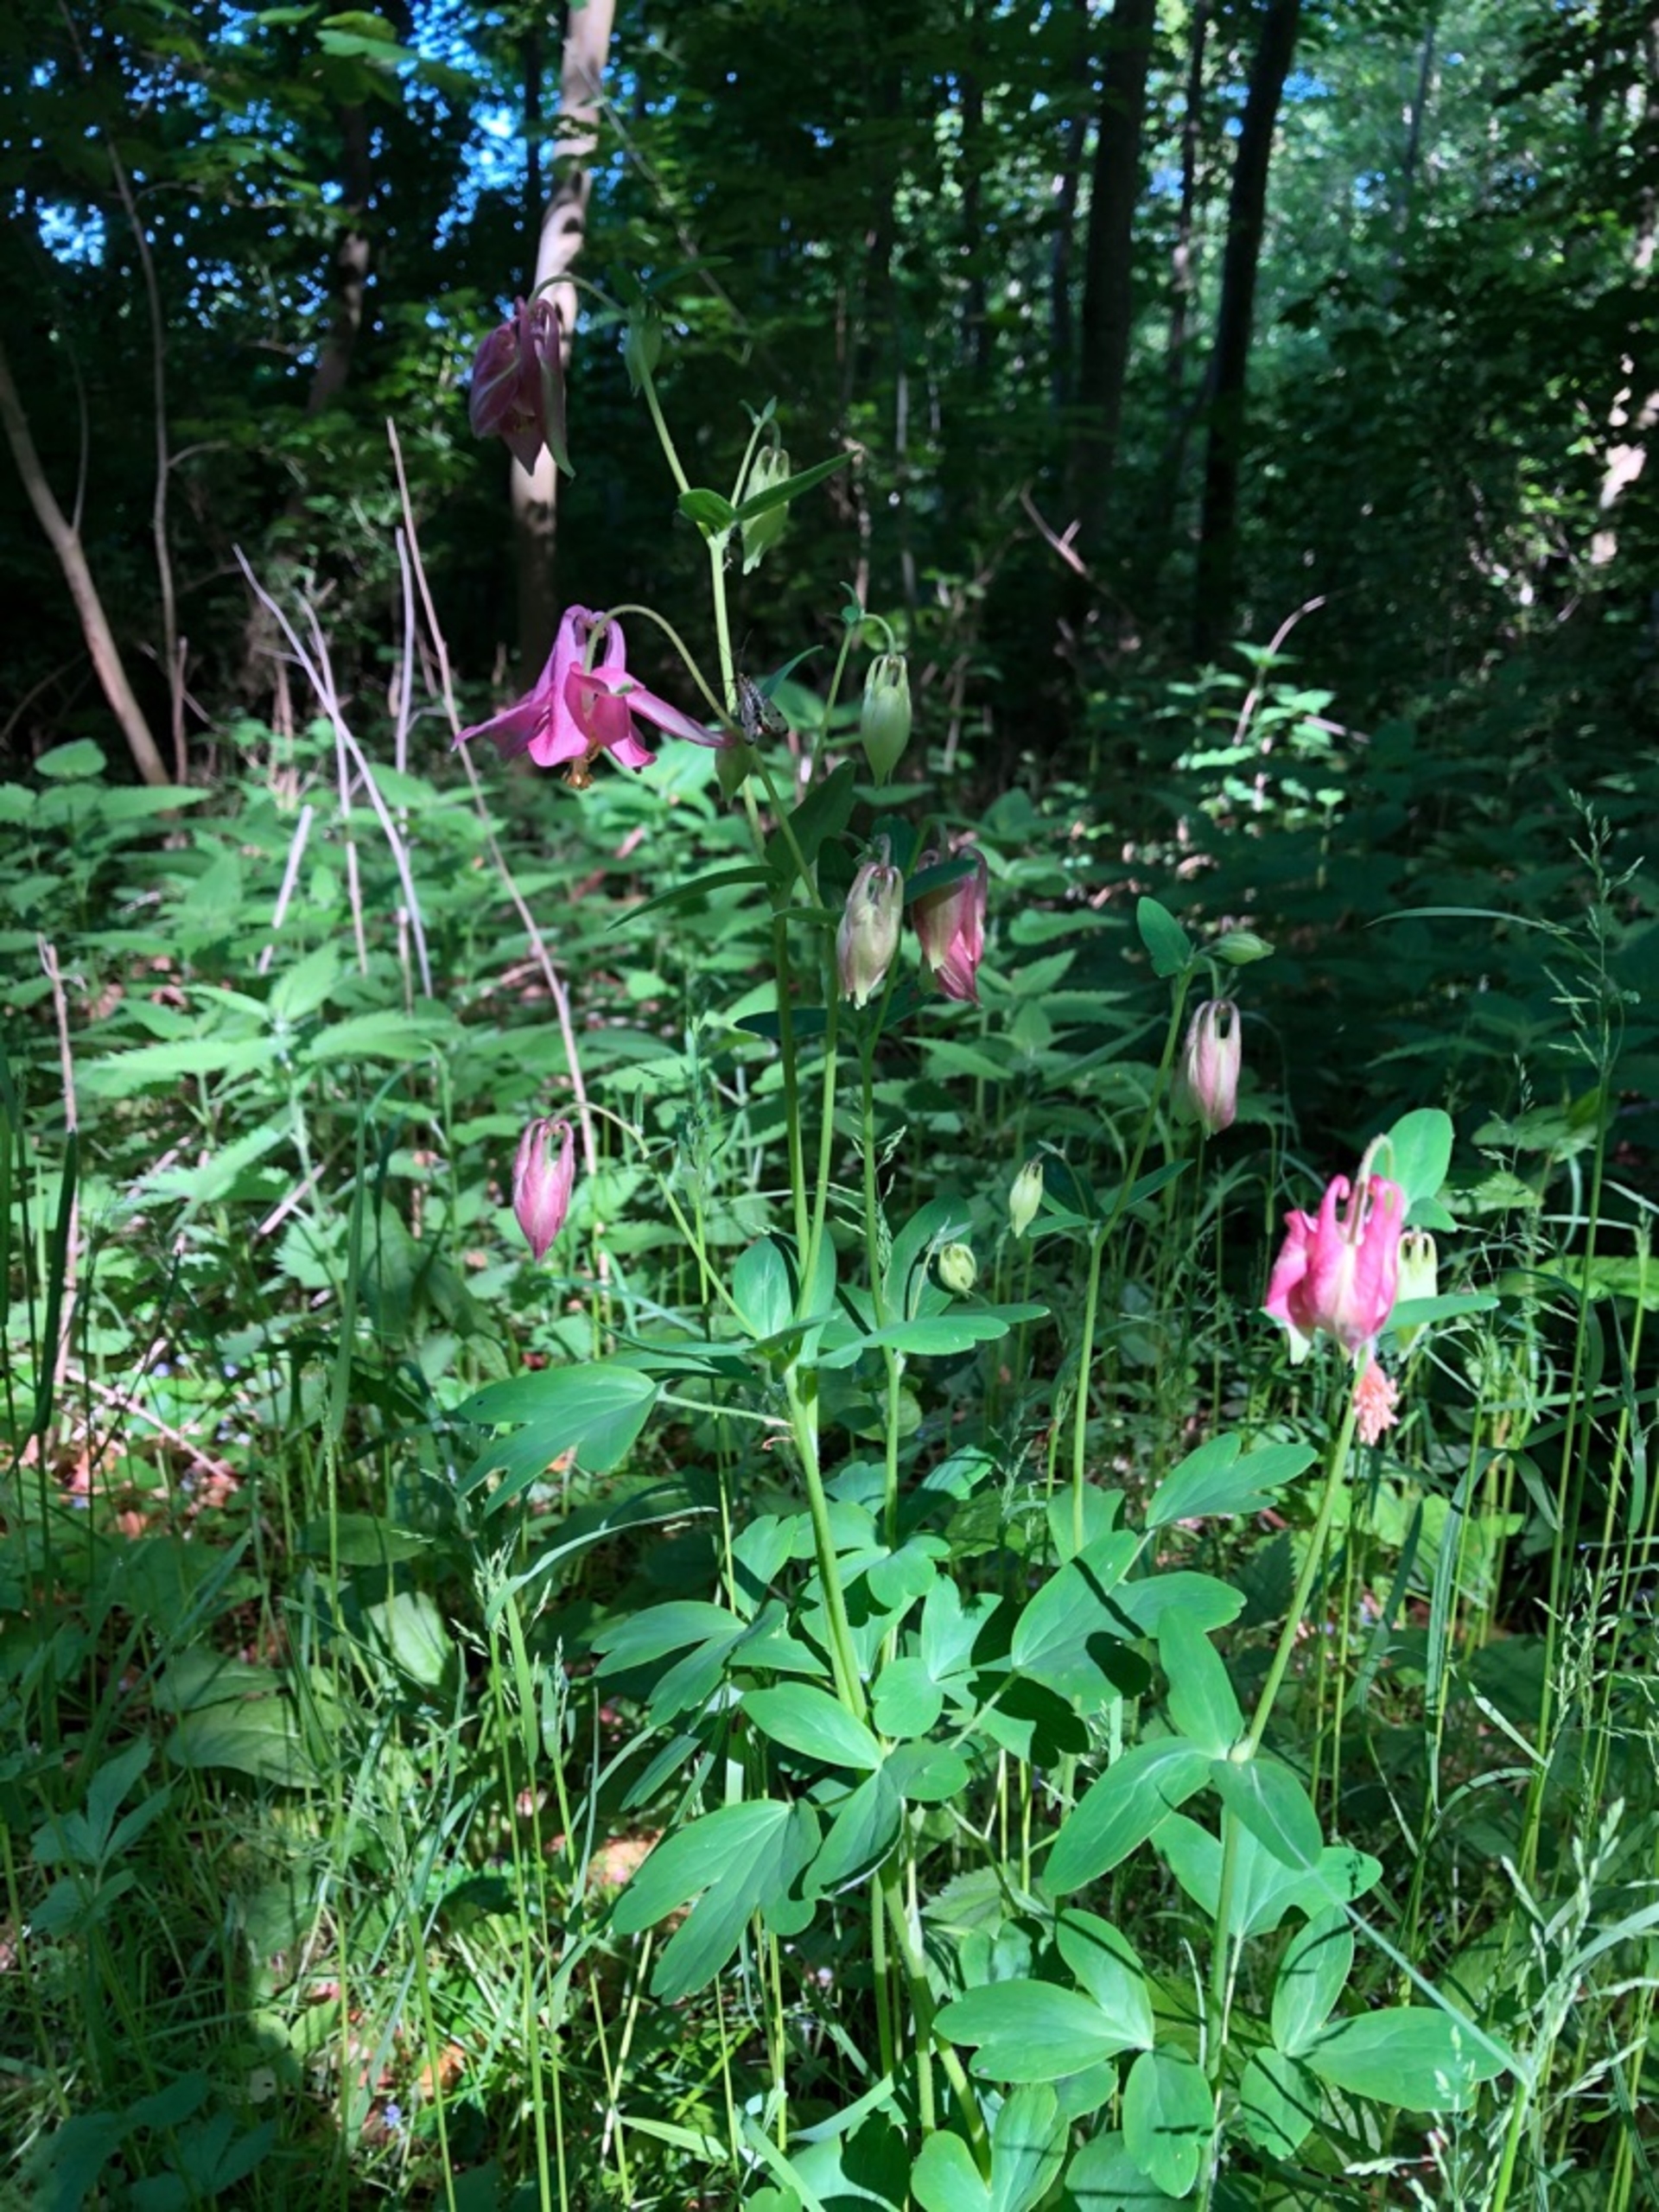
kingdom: Plantae
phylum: Tracheophyta
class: Magnoliopsida
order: Ranunculales
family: Ranunculaceae
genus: Aquilegia
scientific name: Aquilegia vulgaris
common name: Akeleje
